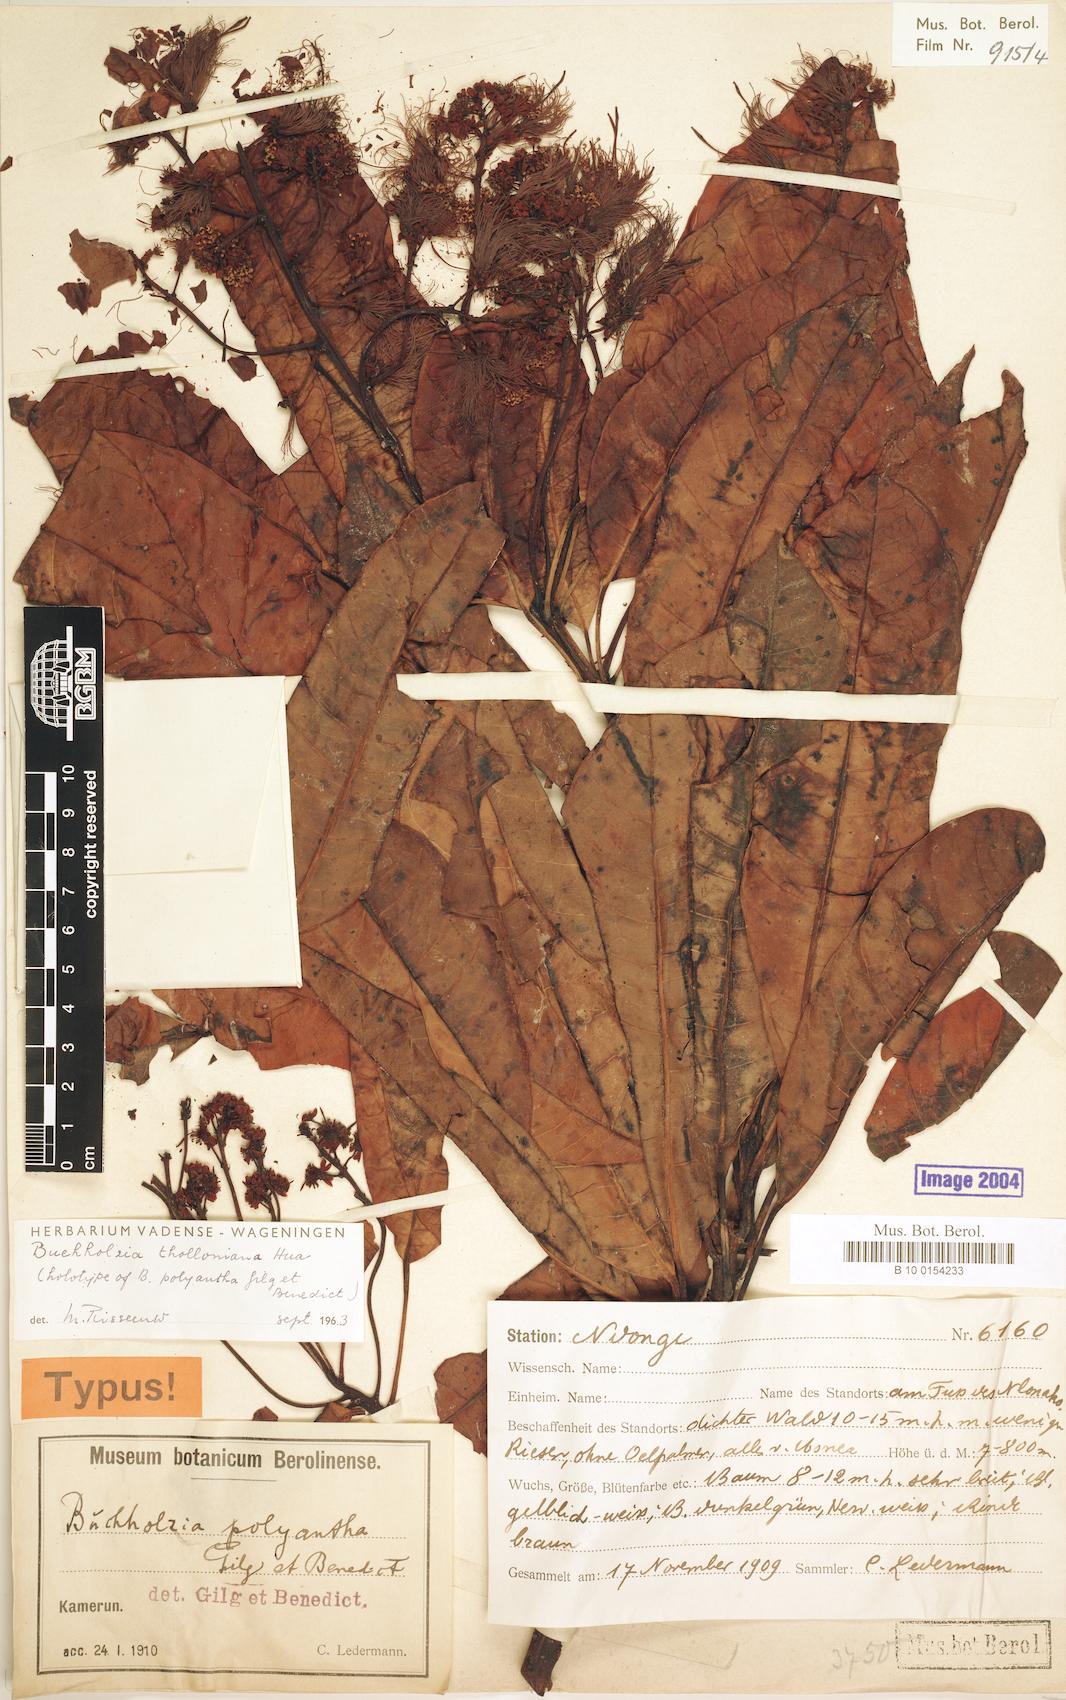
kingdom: Plantae
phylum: Tracheophyta
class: Magnoliopsida
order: Brassicales
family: Capparaceae
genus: Buchholzia
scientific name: Buchholzia tholloniana
